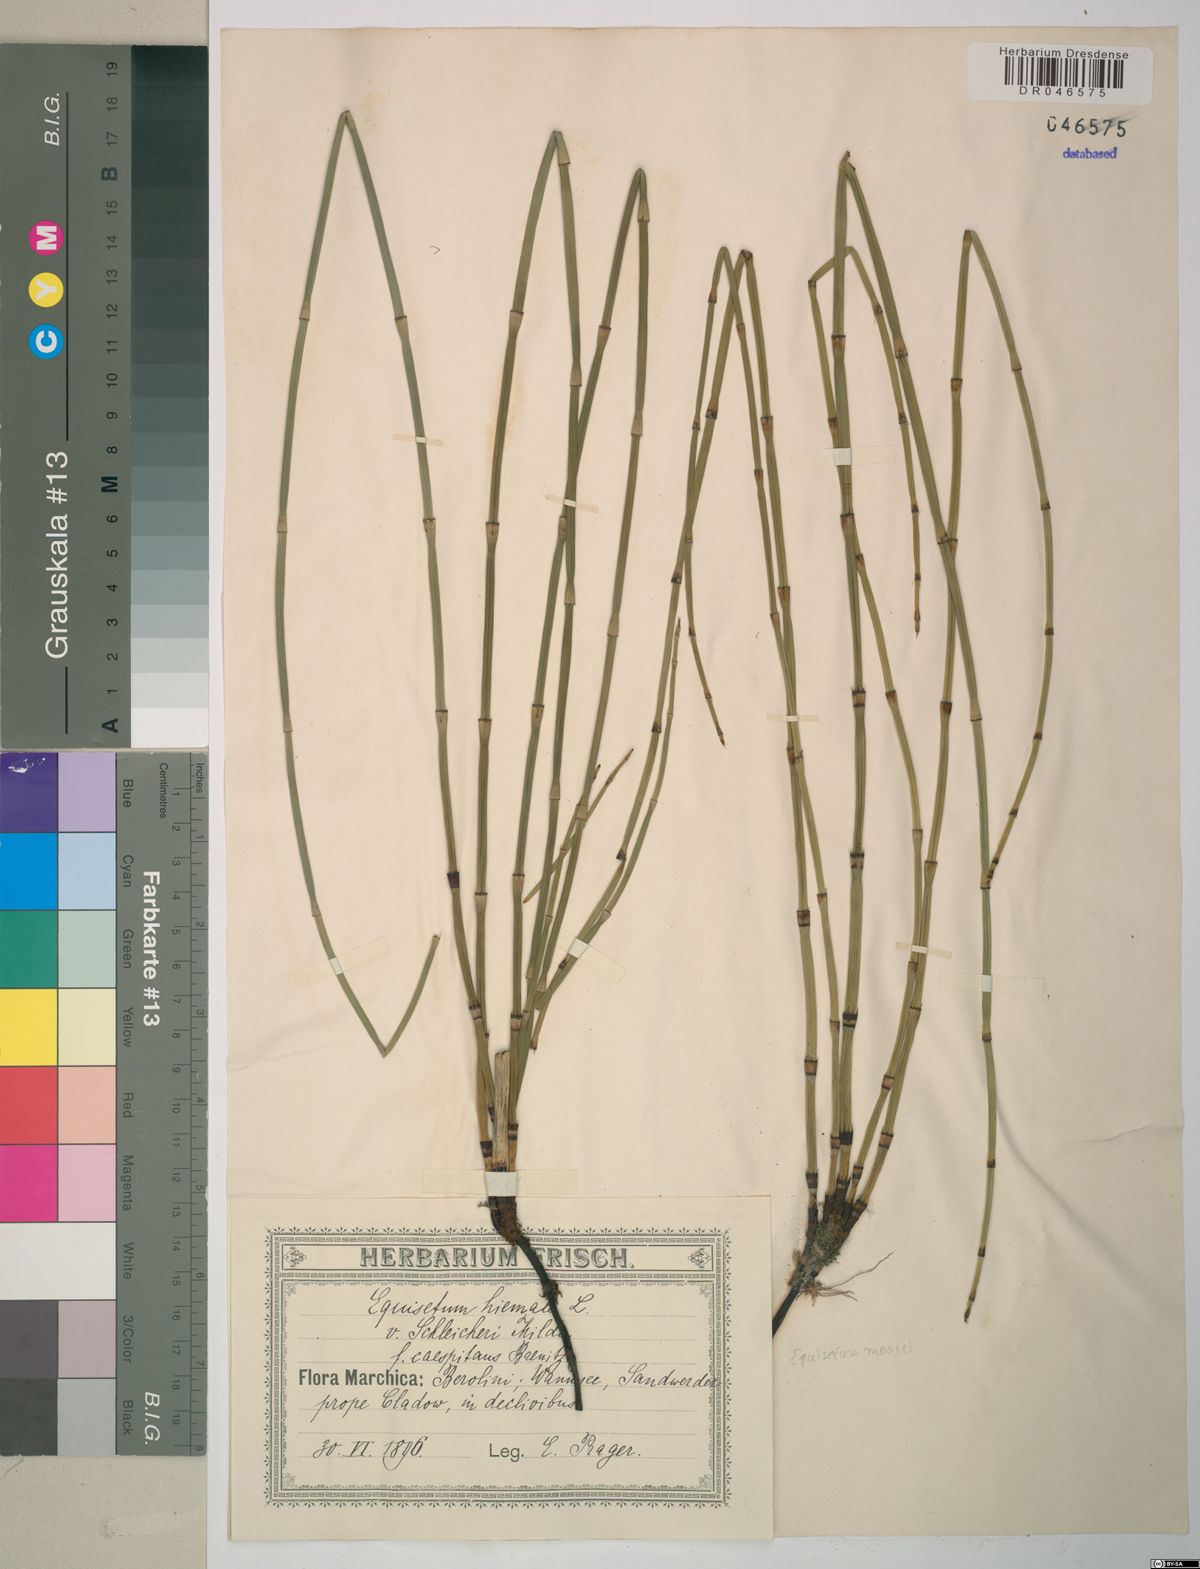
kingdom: Plantae
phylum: Tracheophyta
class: Polypodiopsida
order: Equisetales
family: Equisetaceae
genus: Equisetum
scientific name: Equisetum moorei
